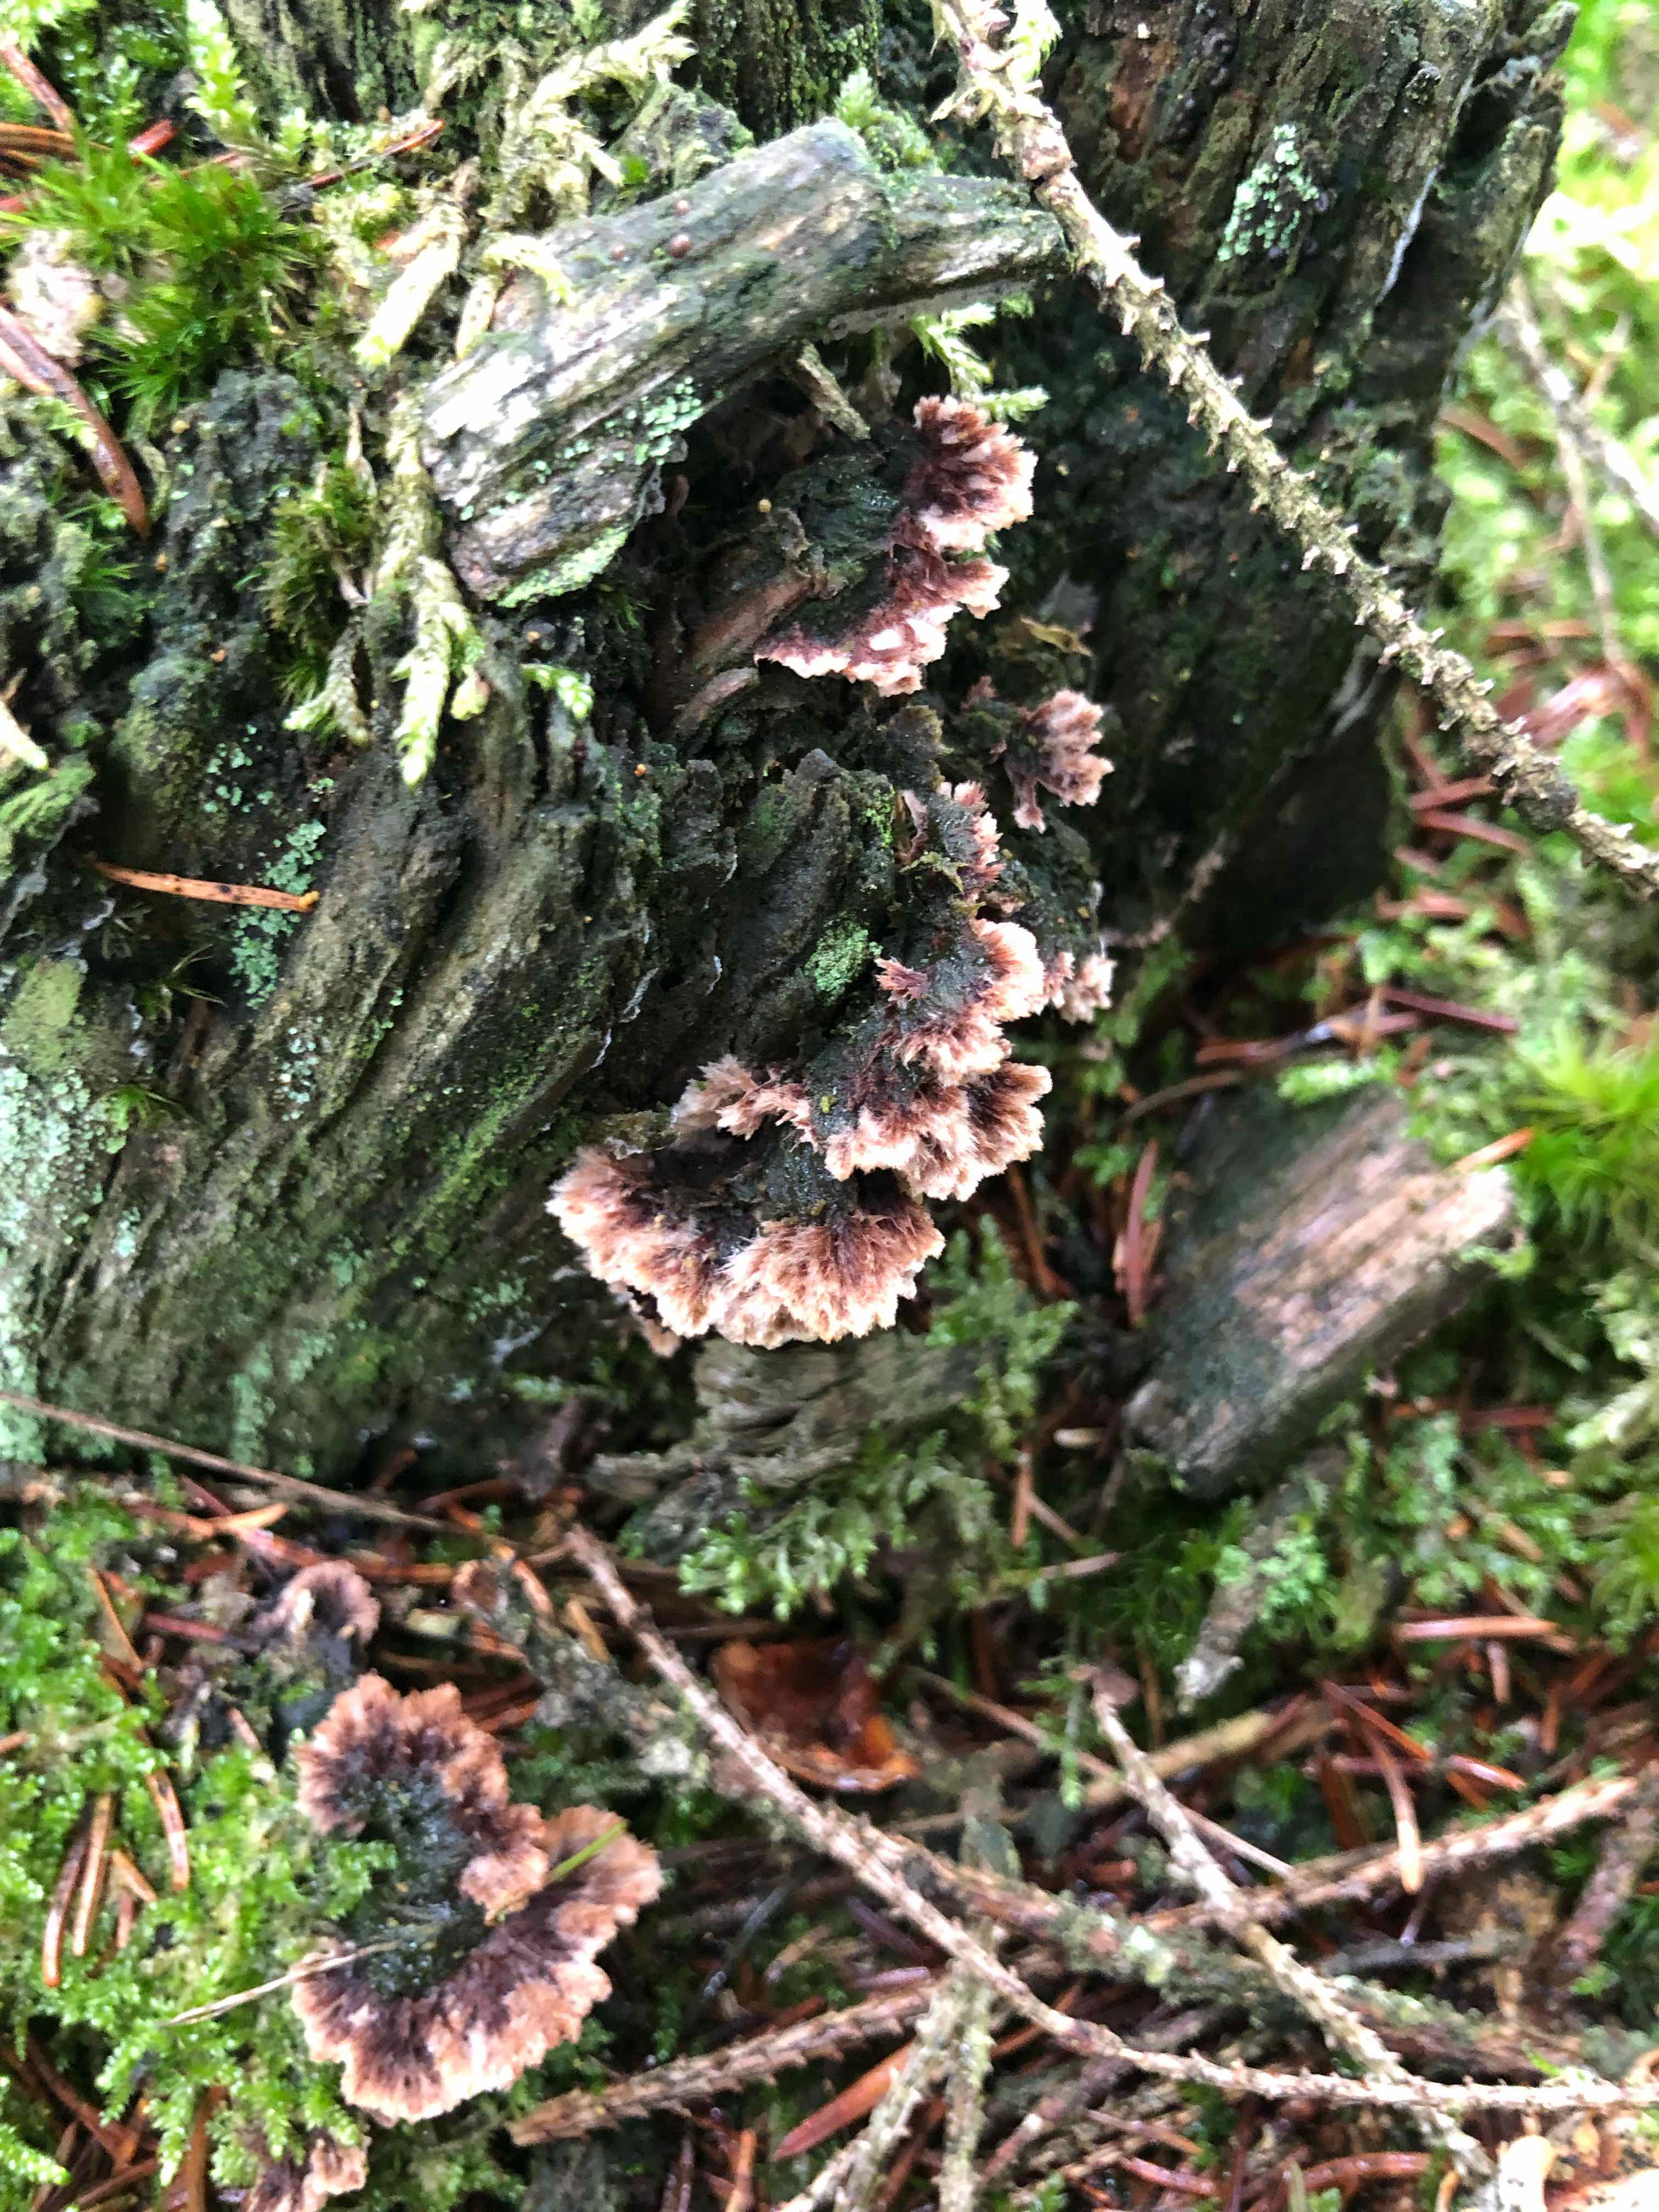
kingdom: Fungi
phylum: Basidiomycota
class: Agaricomycetes
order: Thelephorales
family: Thelephoraceae
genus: Thelephora
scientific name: Thelephora terrestris
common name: fliget frynsesvamp
